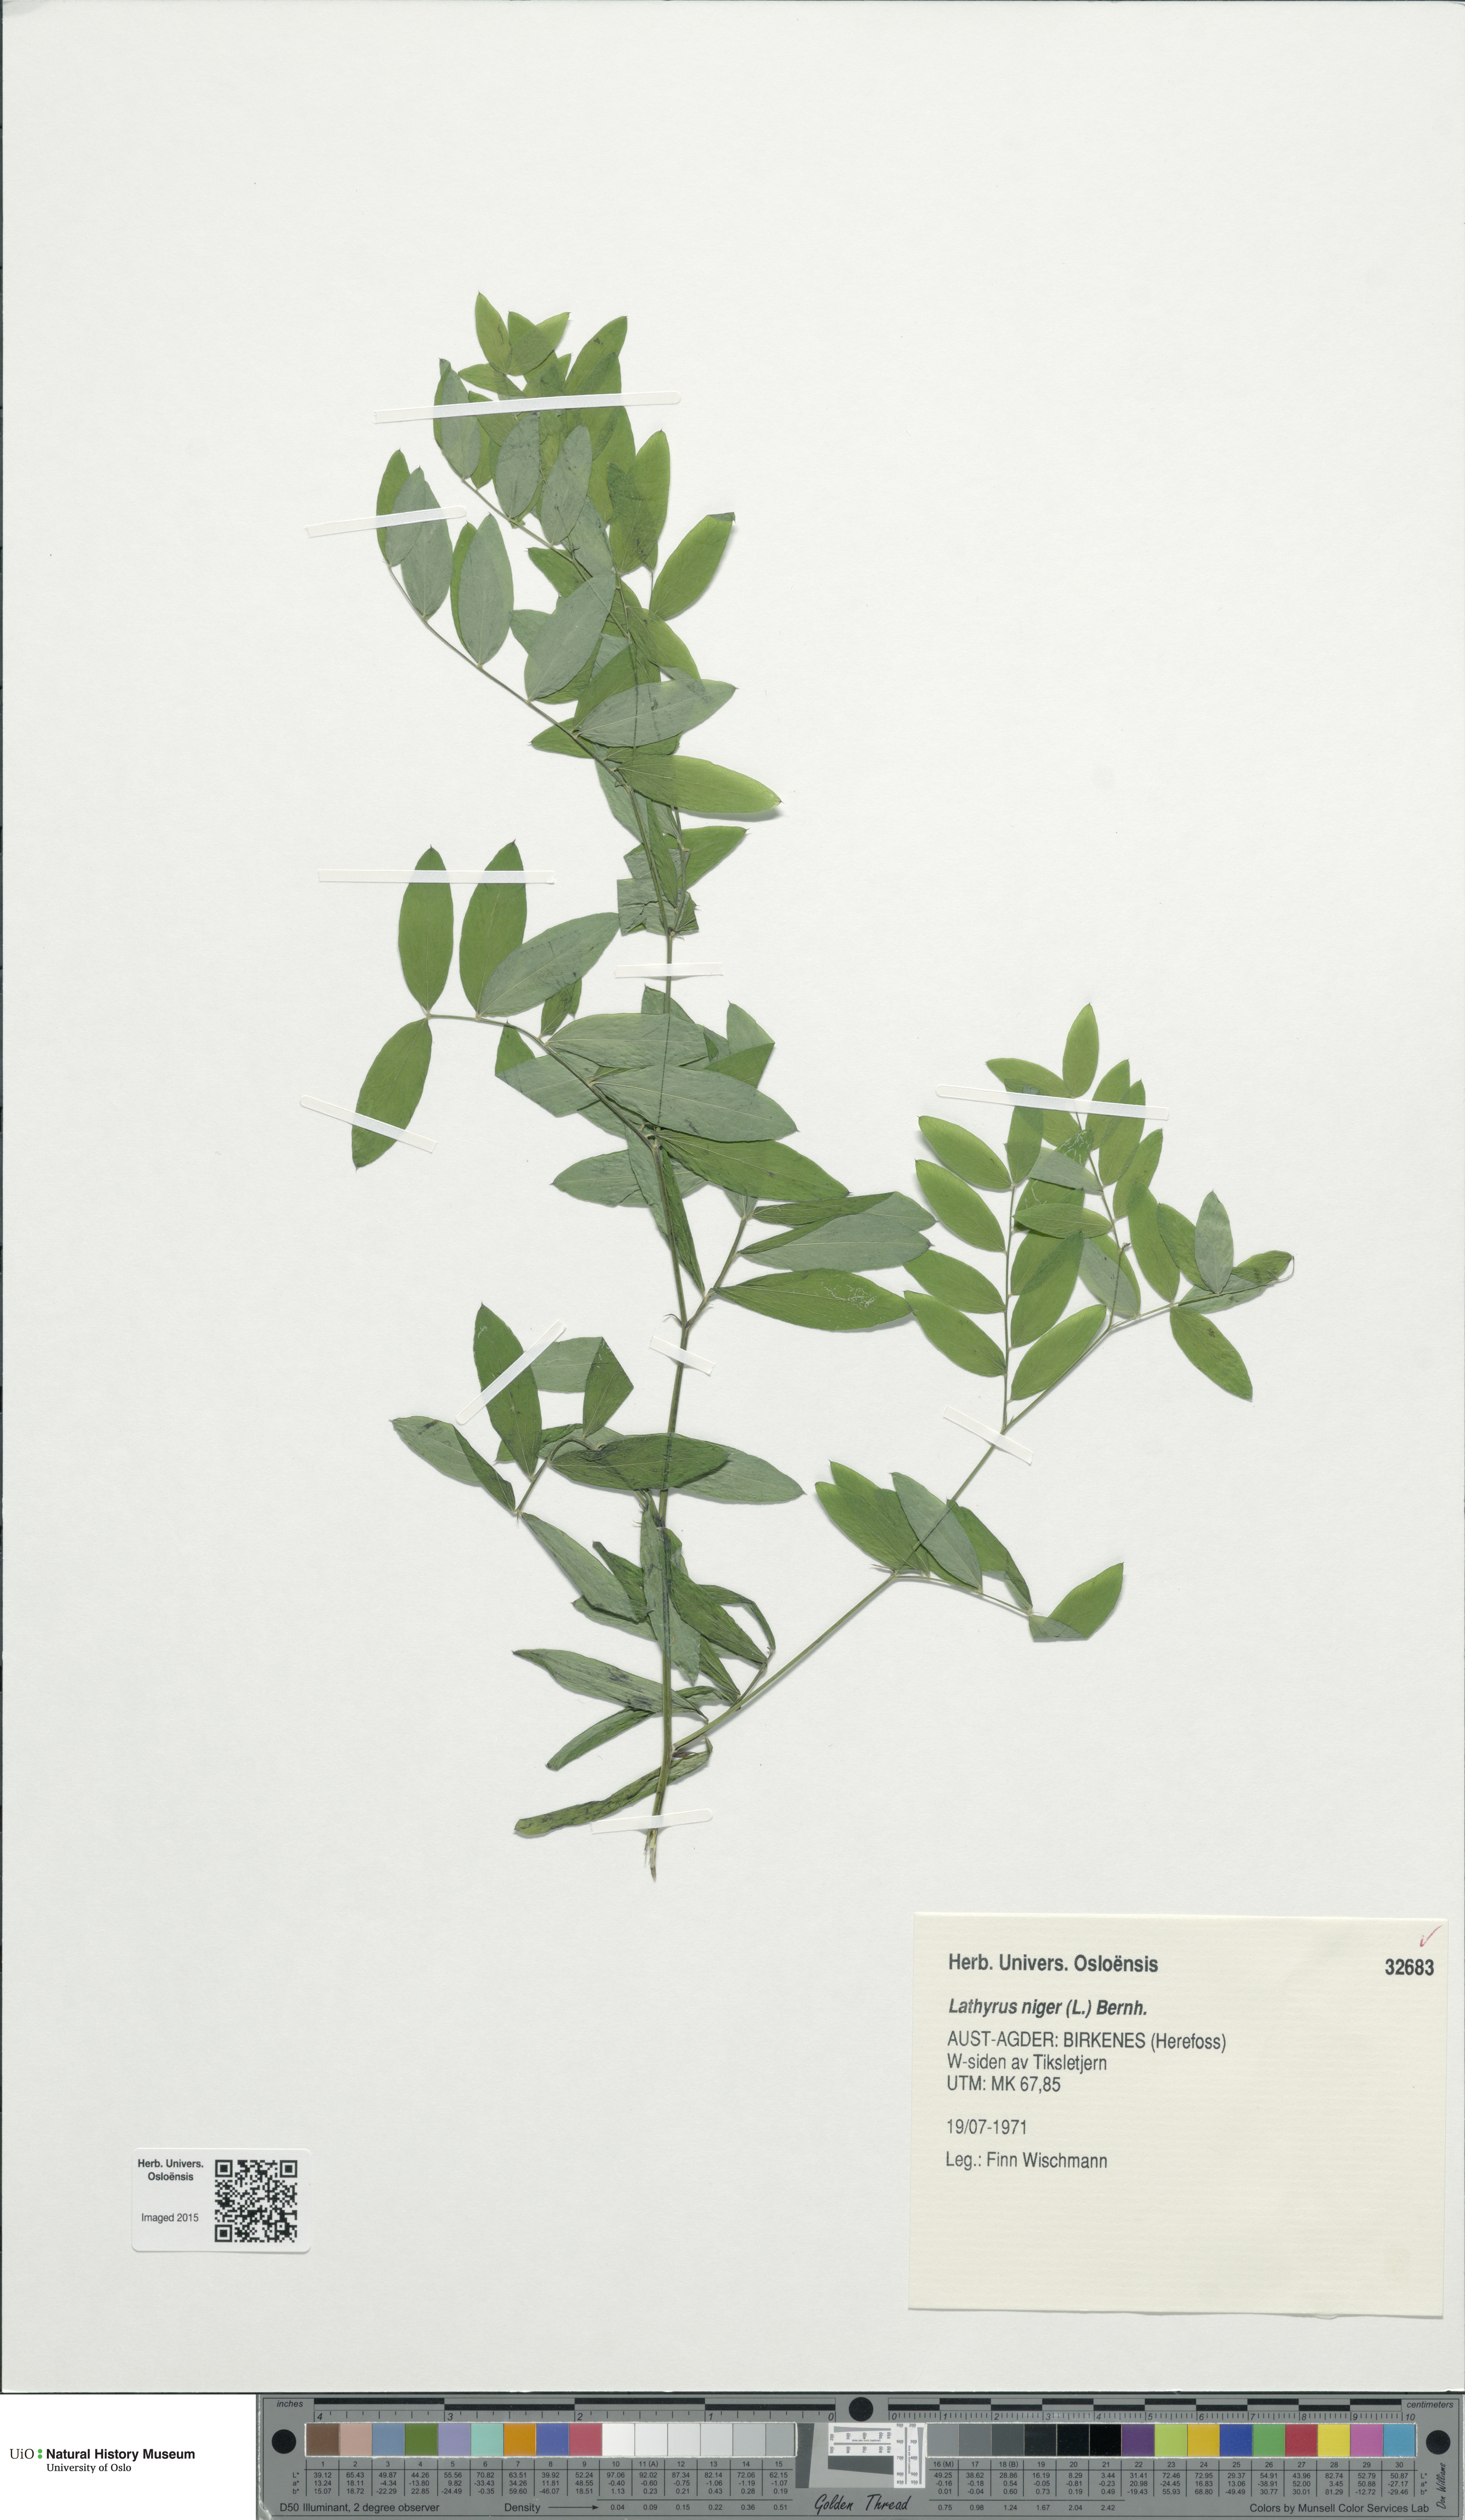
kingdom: Plantae
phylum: Tracheophyta
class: Magnoliopsida
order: Fabales
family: Fabaceae
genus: Lathyrus
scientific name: Lathyrus niger
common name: Black pea
